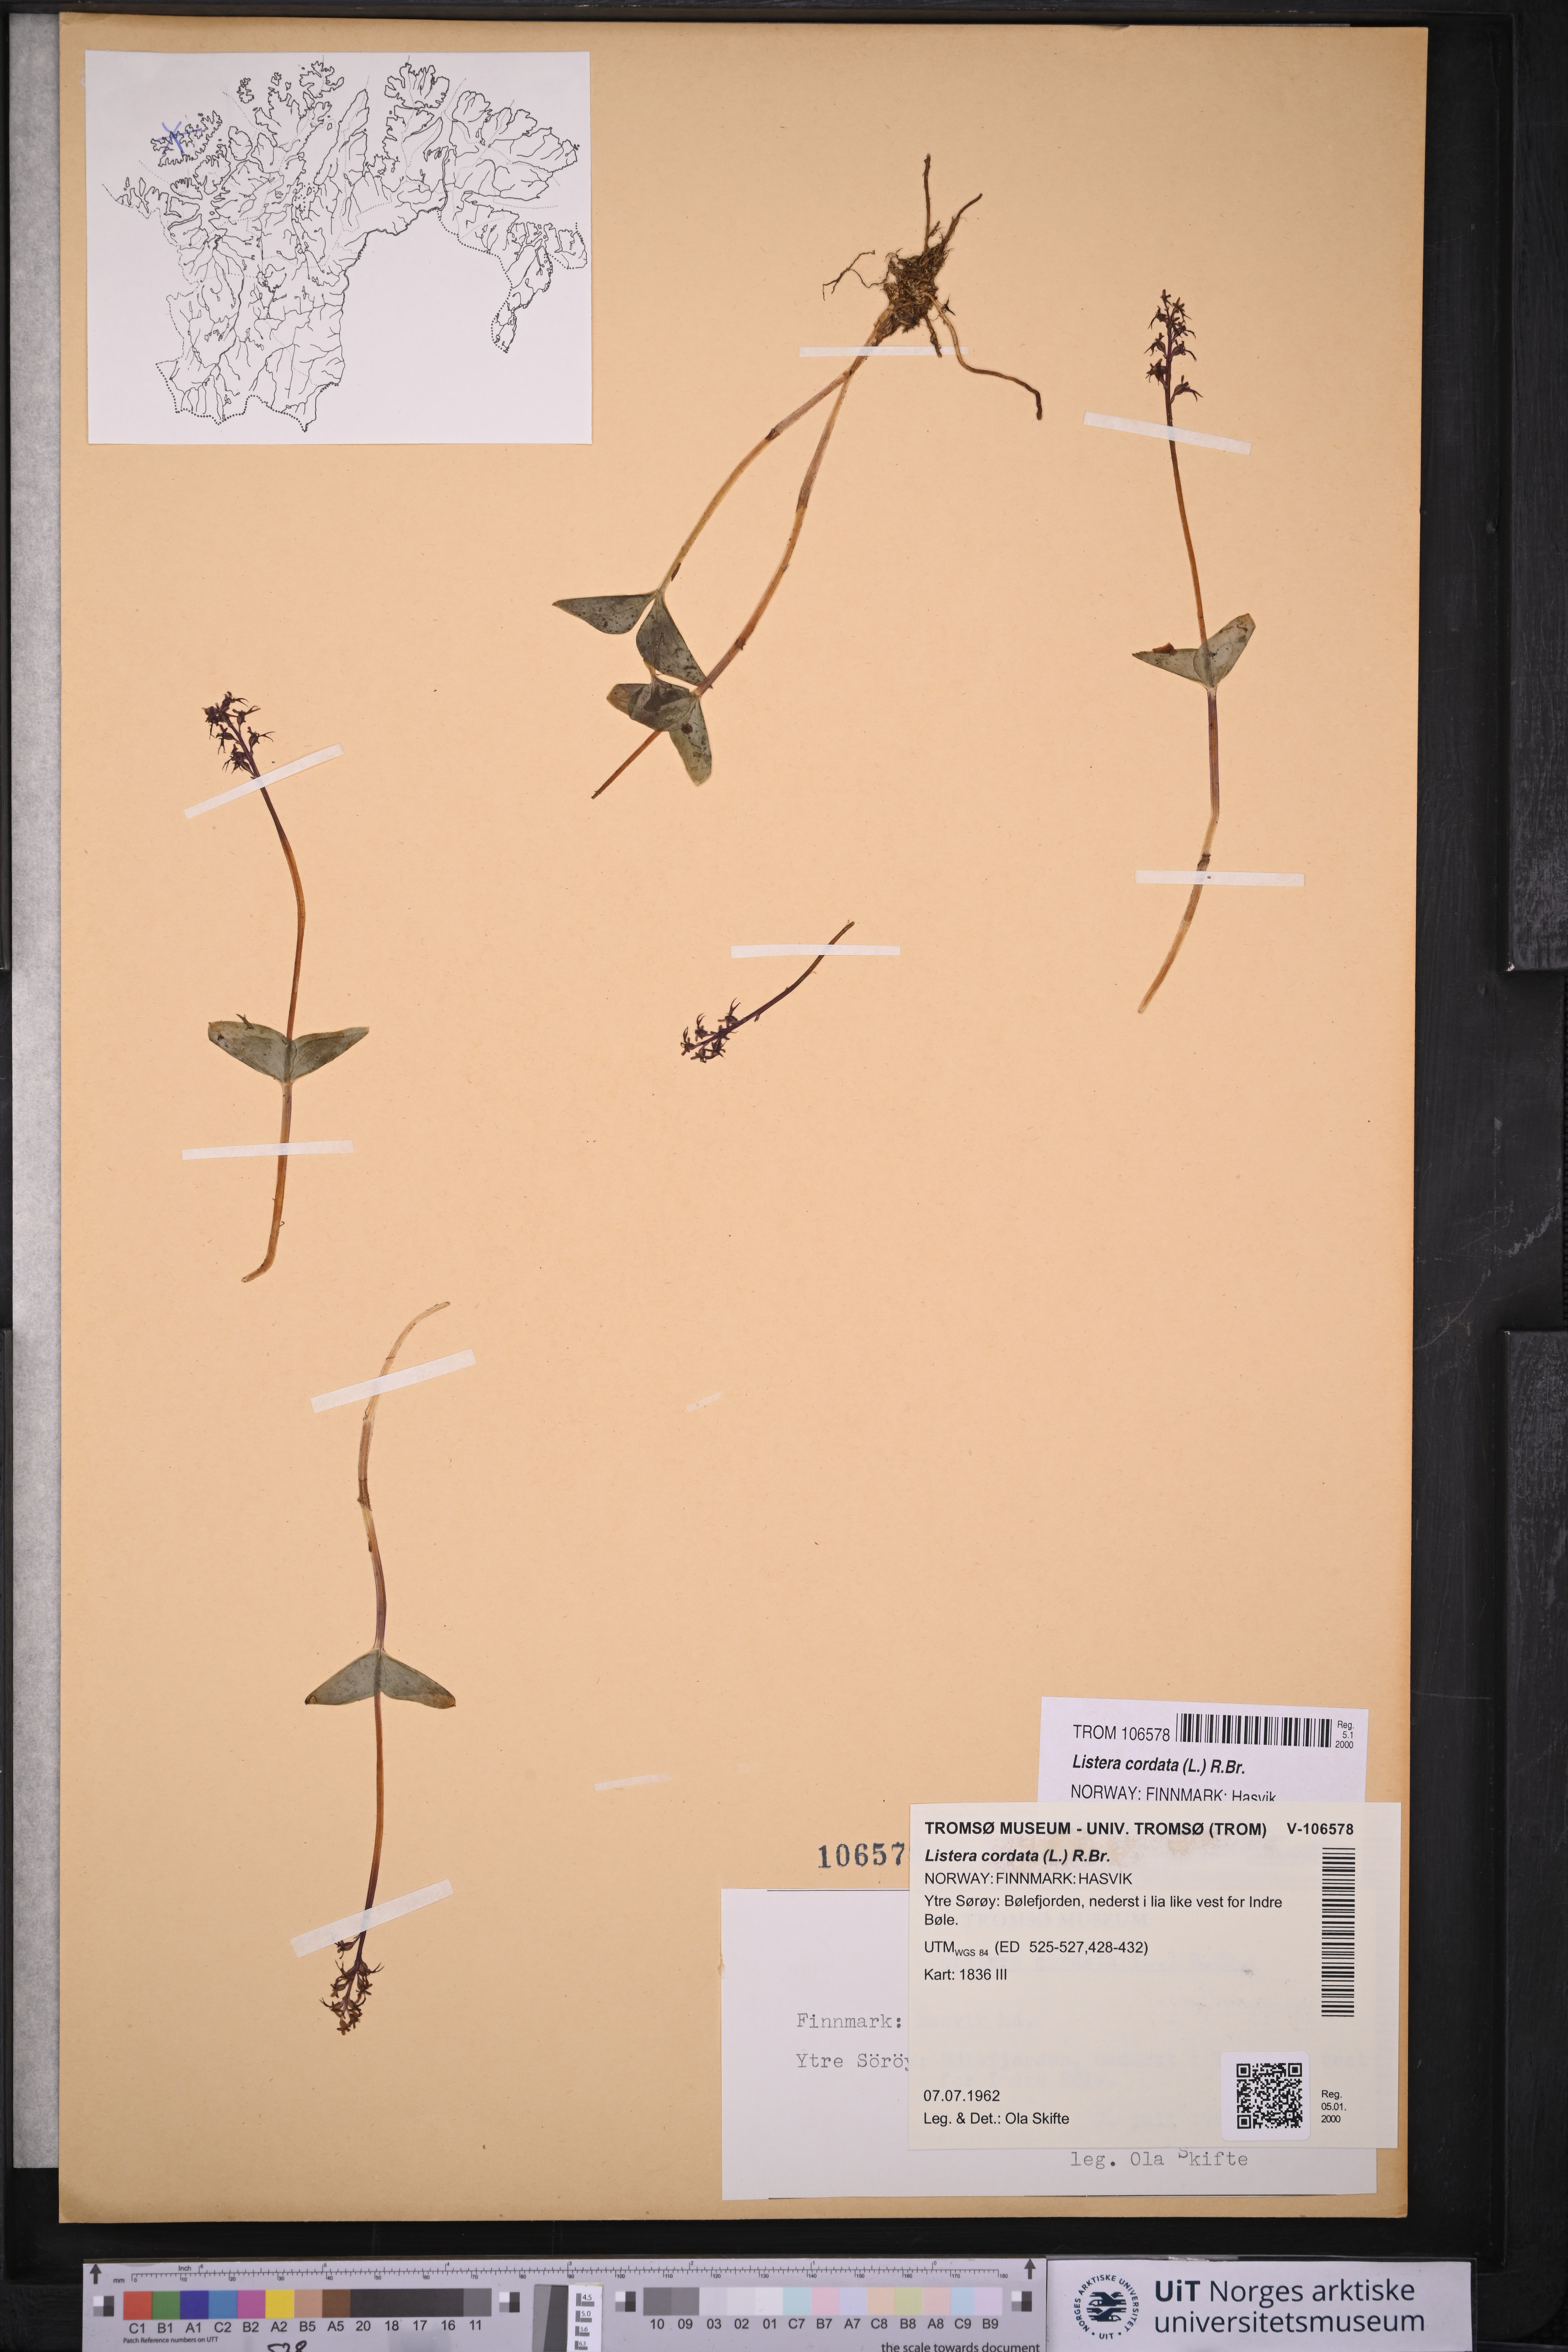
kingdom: Plantae
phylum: Tracheophyta
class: Liliopsida
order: Asparagales
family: Orchidaceae
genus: Neottia
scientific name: Neottia cordata
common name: Lesser twayblade
